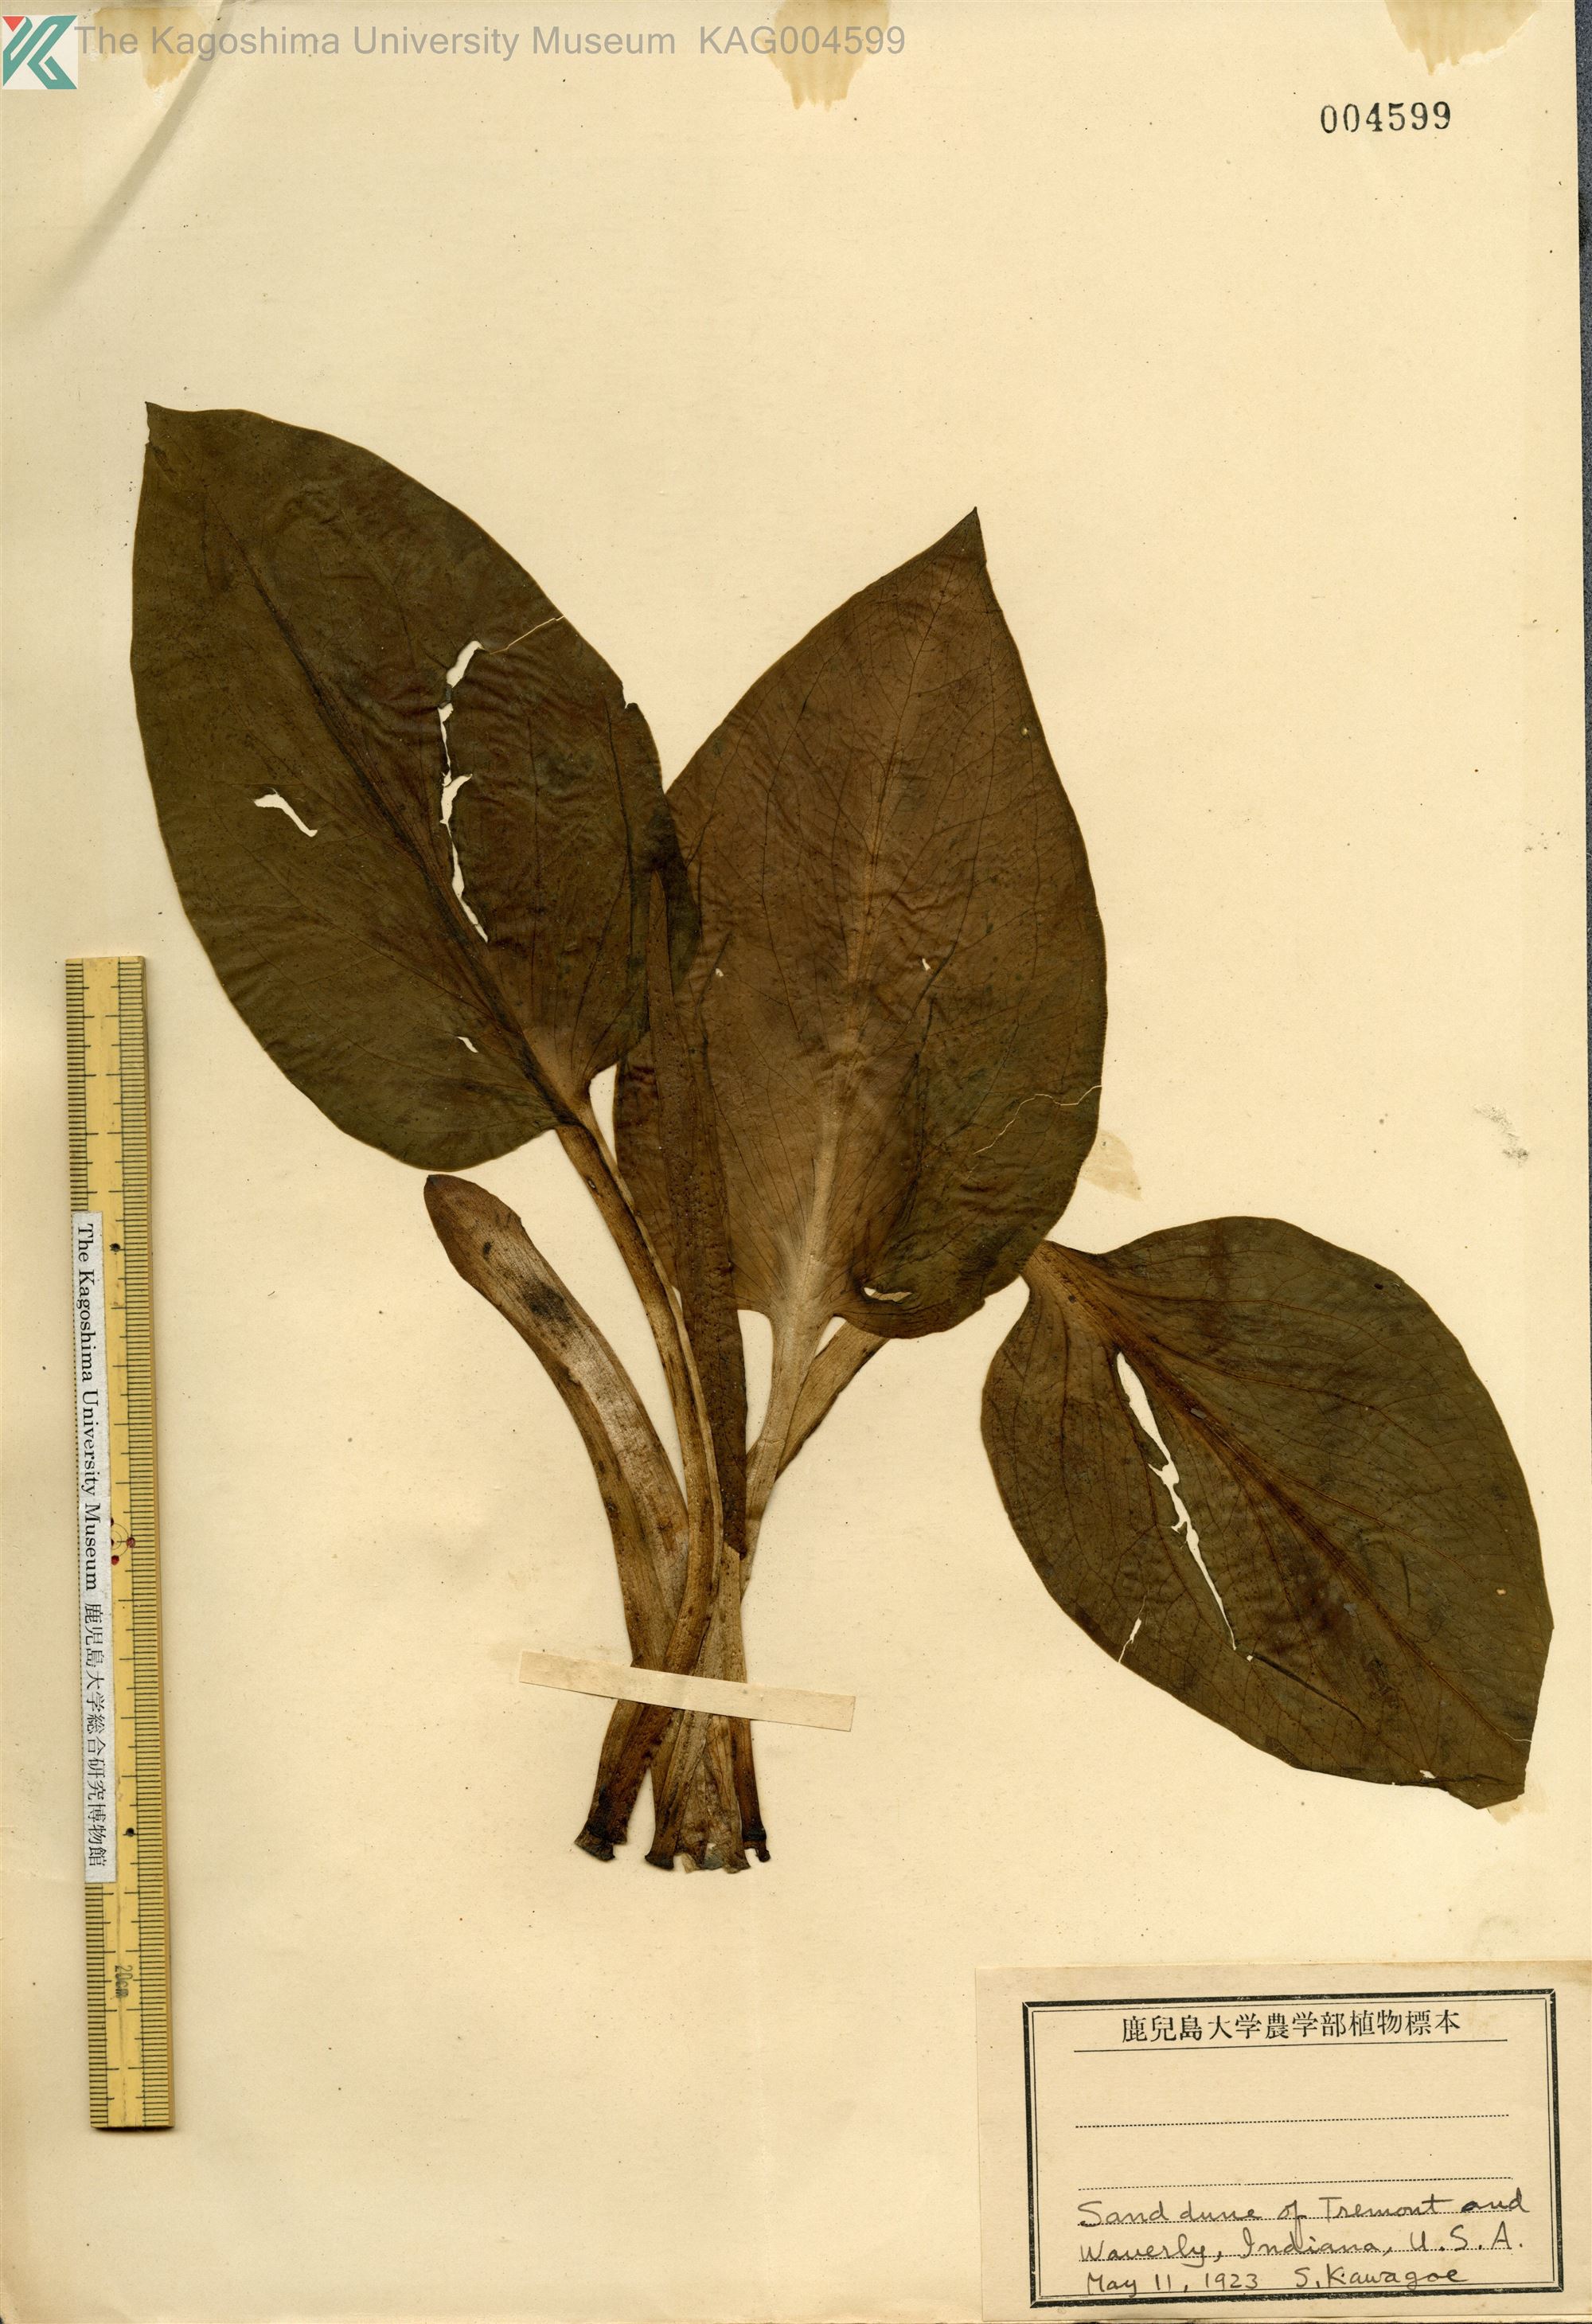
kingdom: Plantae
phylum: Tracheophyta
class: Liliopsida
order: Alismatales
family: Araceae
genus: Lysichiton
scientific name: Lysichiton
